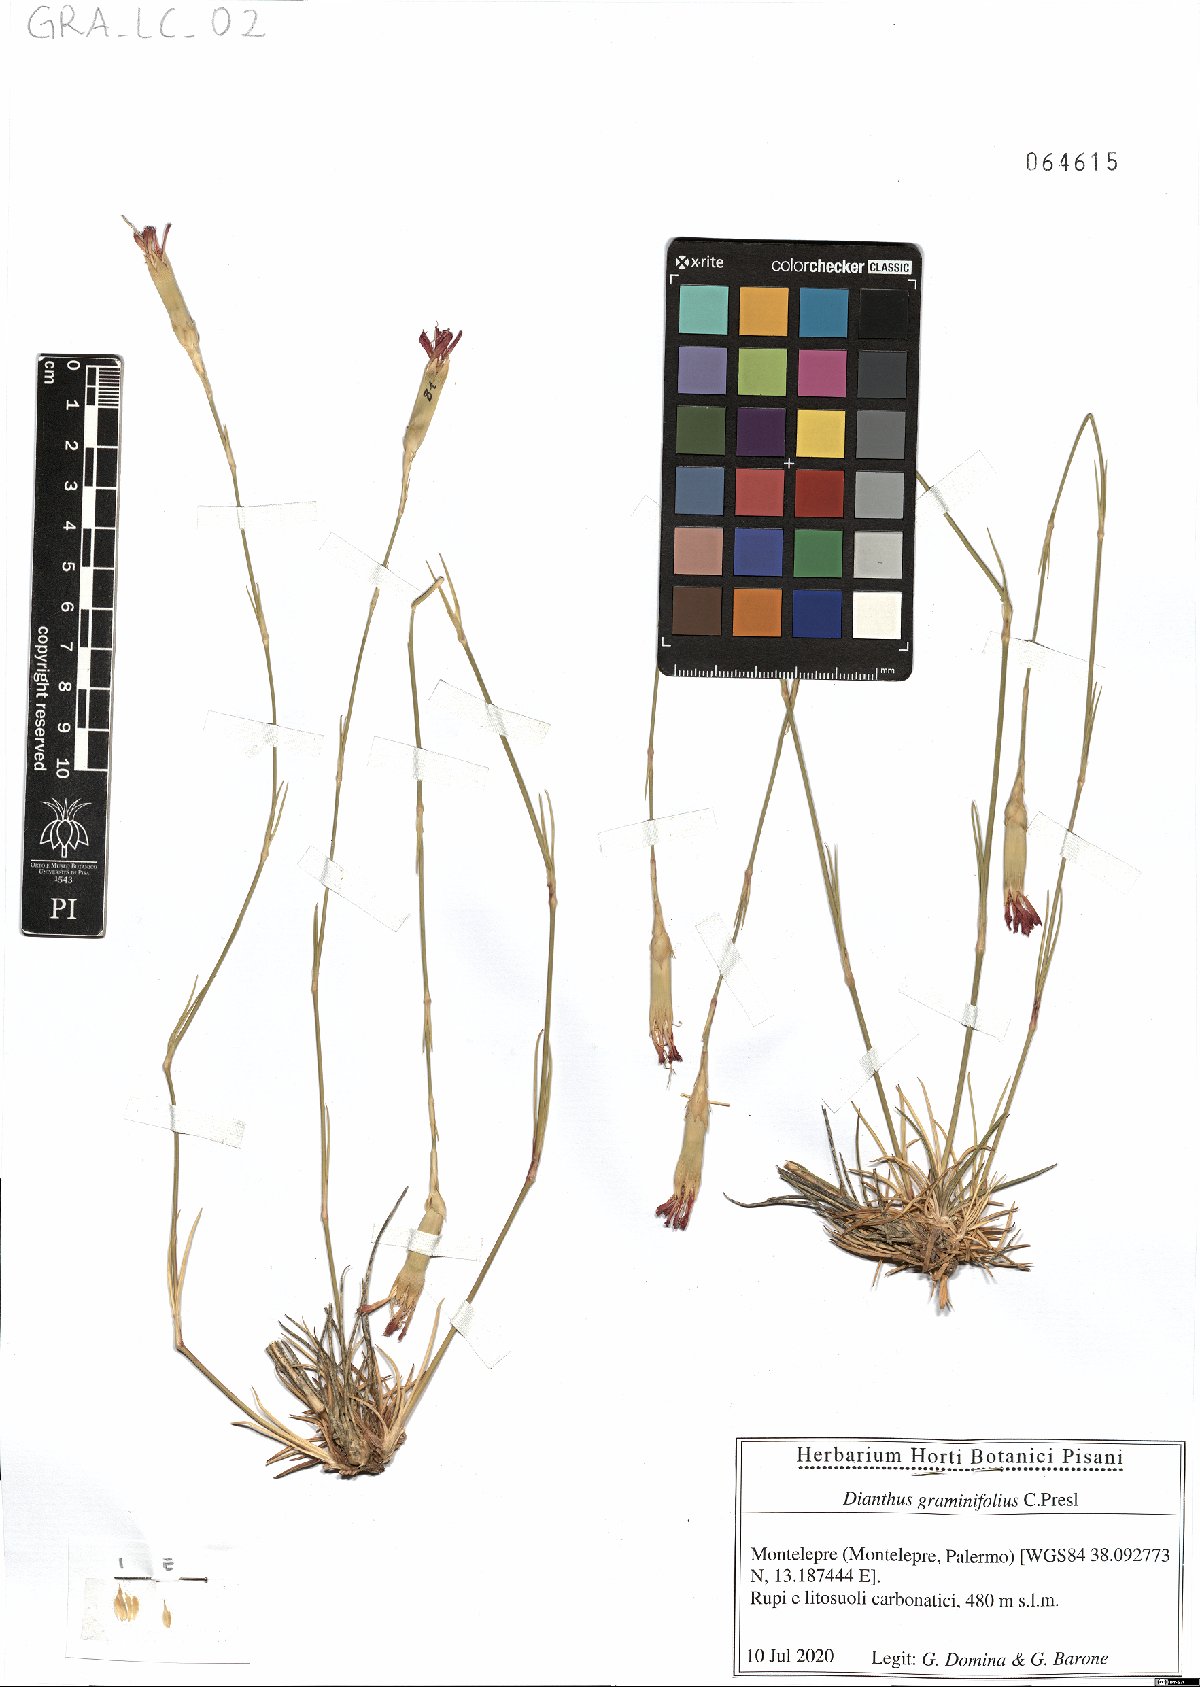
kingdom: Plantae
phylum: Tracheophyta
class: Magnoliopsida
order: Caryophyllales
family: Caryophyllaceae
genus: Dianthus
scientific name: Dianthus graminifolius
